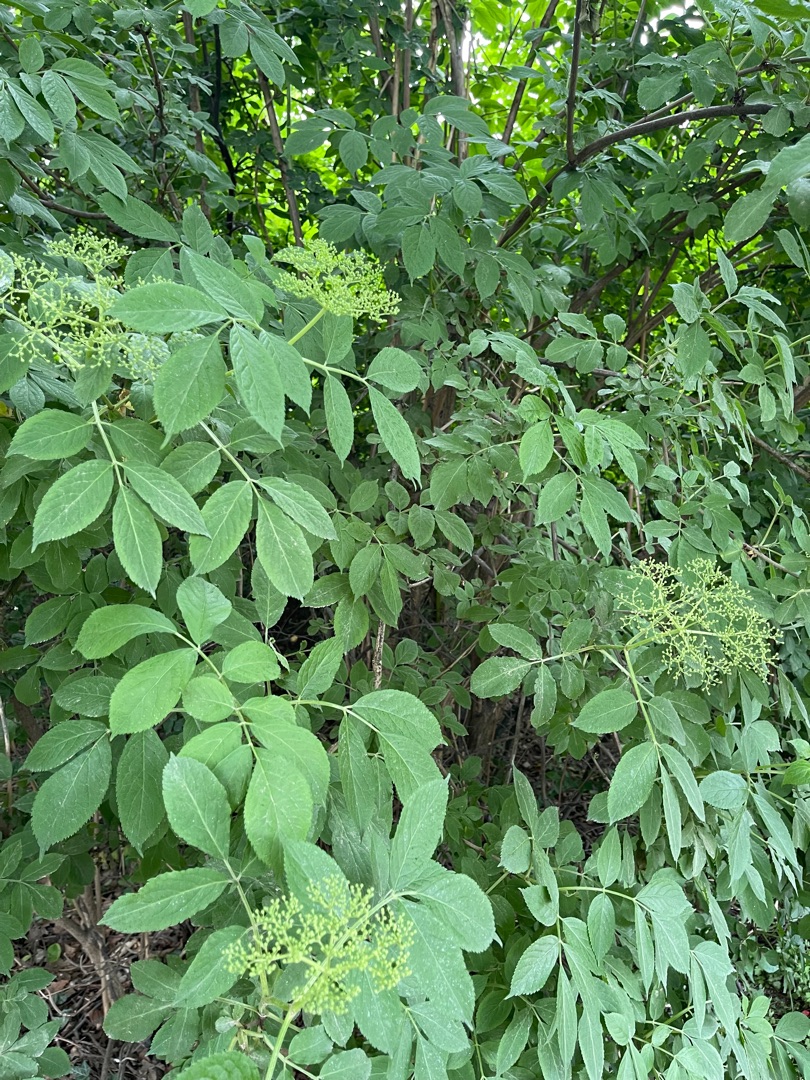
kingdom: Plantae
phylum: Tracheophyta
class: Magnoliopsida
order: Dipsacales
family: Viburnaceae
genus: Sambucus
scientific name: Sambucus nigra
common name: Almindelig hyld
